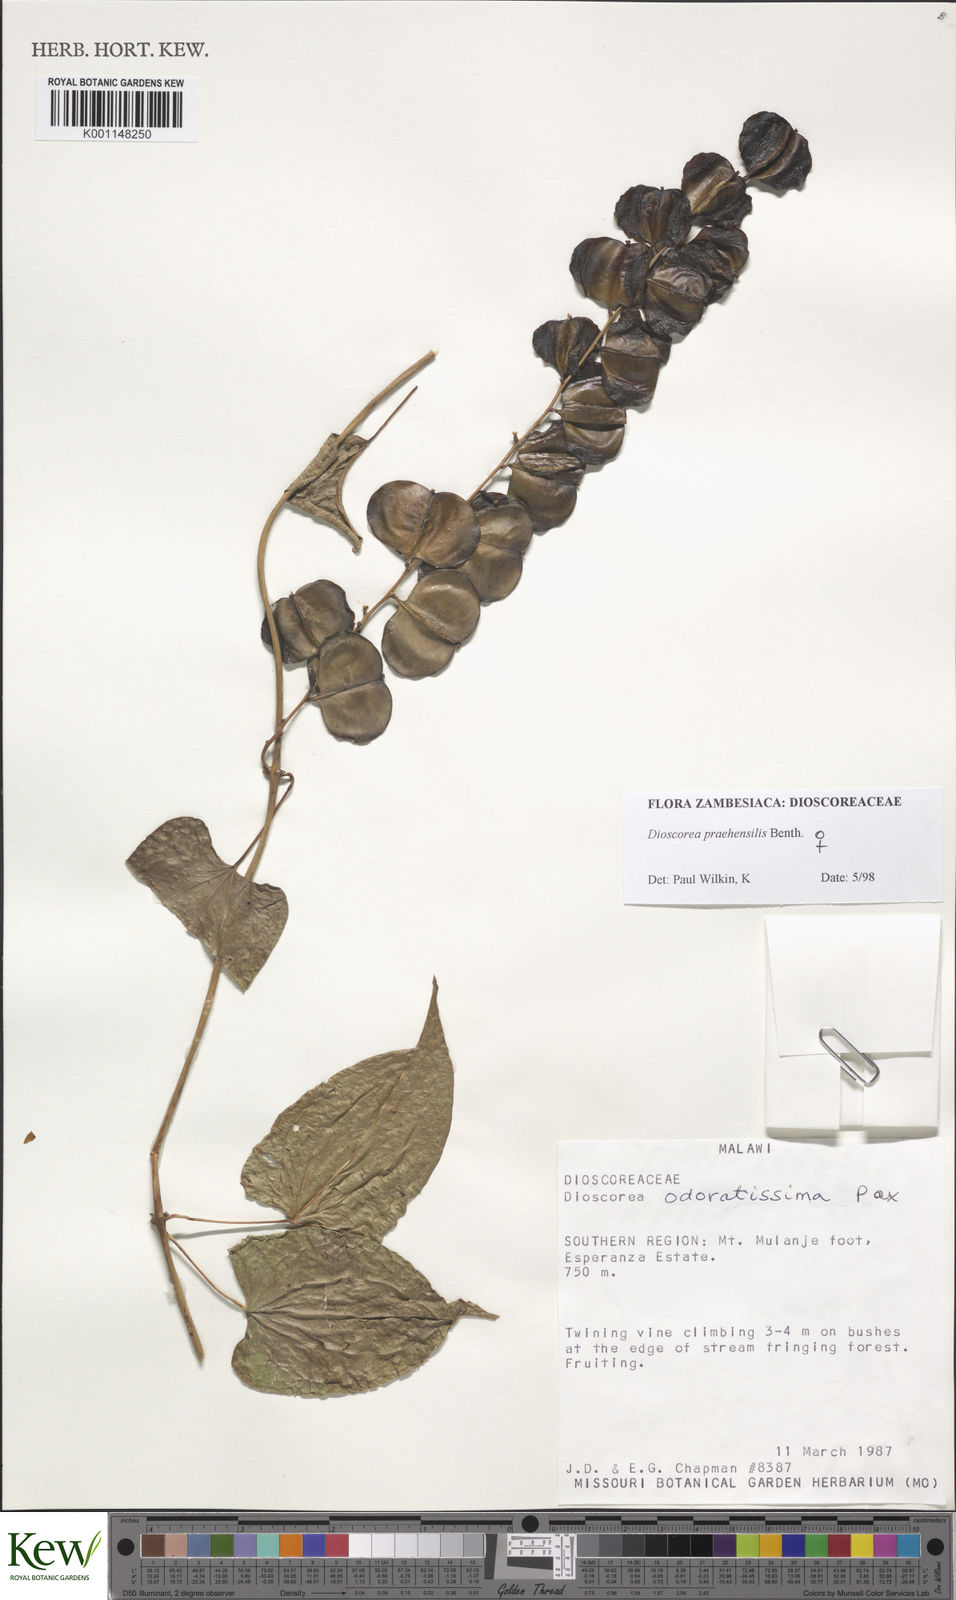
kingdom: Plantae
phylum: Tracheophyta
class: Liliopsida
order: Dioscoreales
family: Dioscoreaceae
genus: Dioscorea
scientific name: Dioscorea praehensilis
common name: Bush yam
